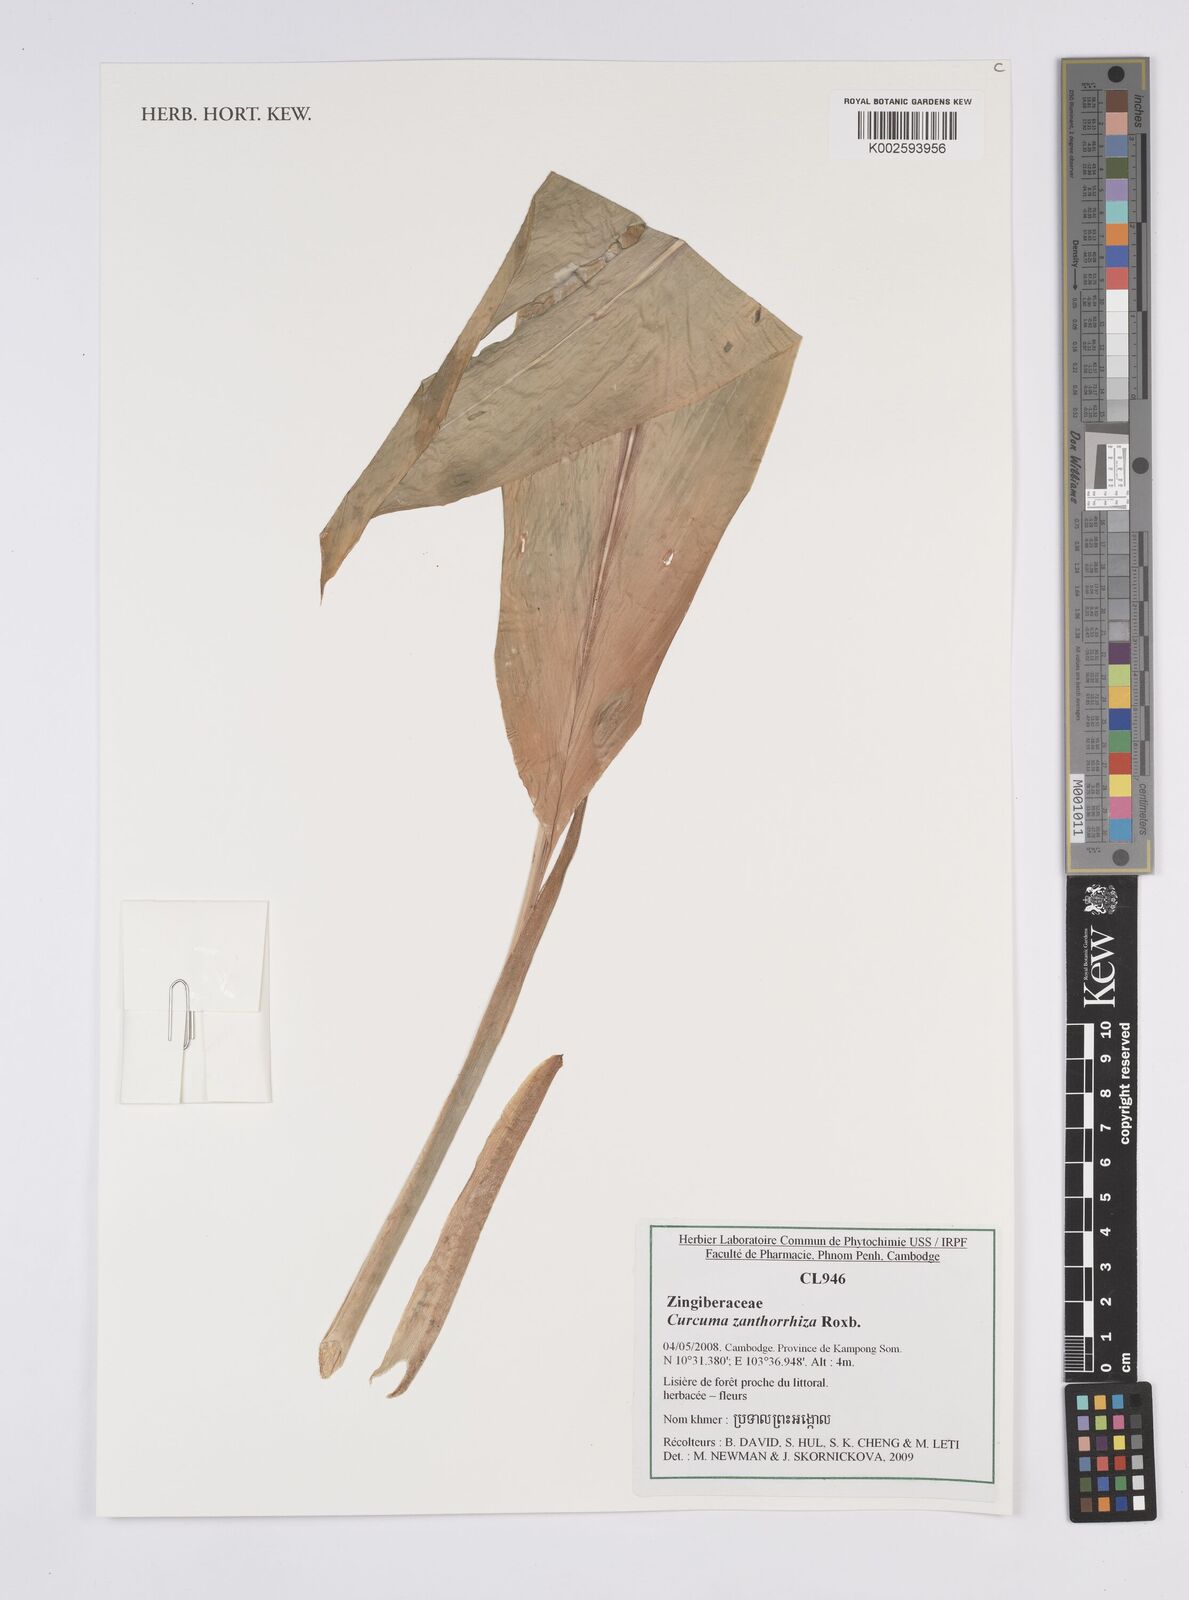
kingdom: Plantae
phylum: Tracheophyta
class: Liliopsida
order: Zingiberales
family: Zingiberaceae
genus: Curcuma
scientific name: Curcuma zanthorrhiza
